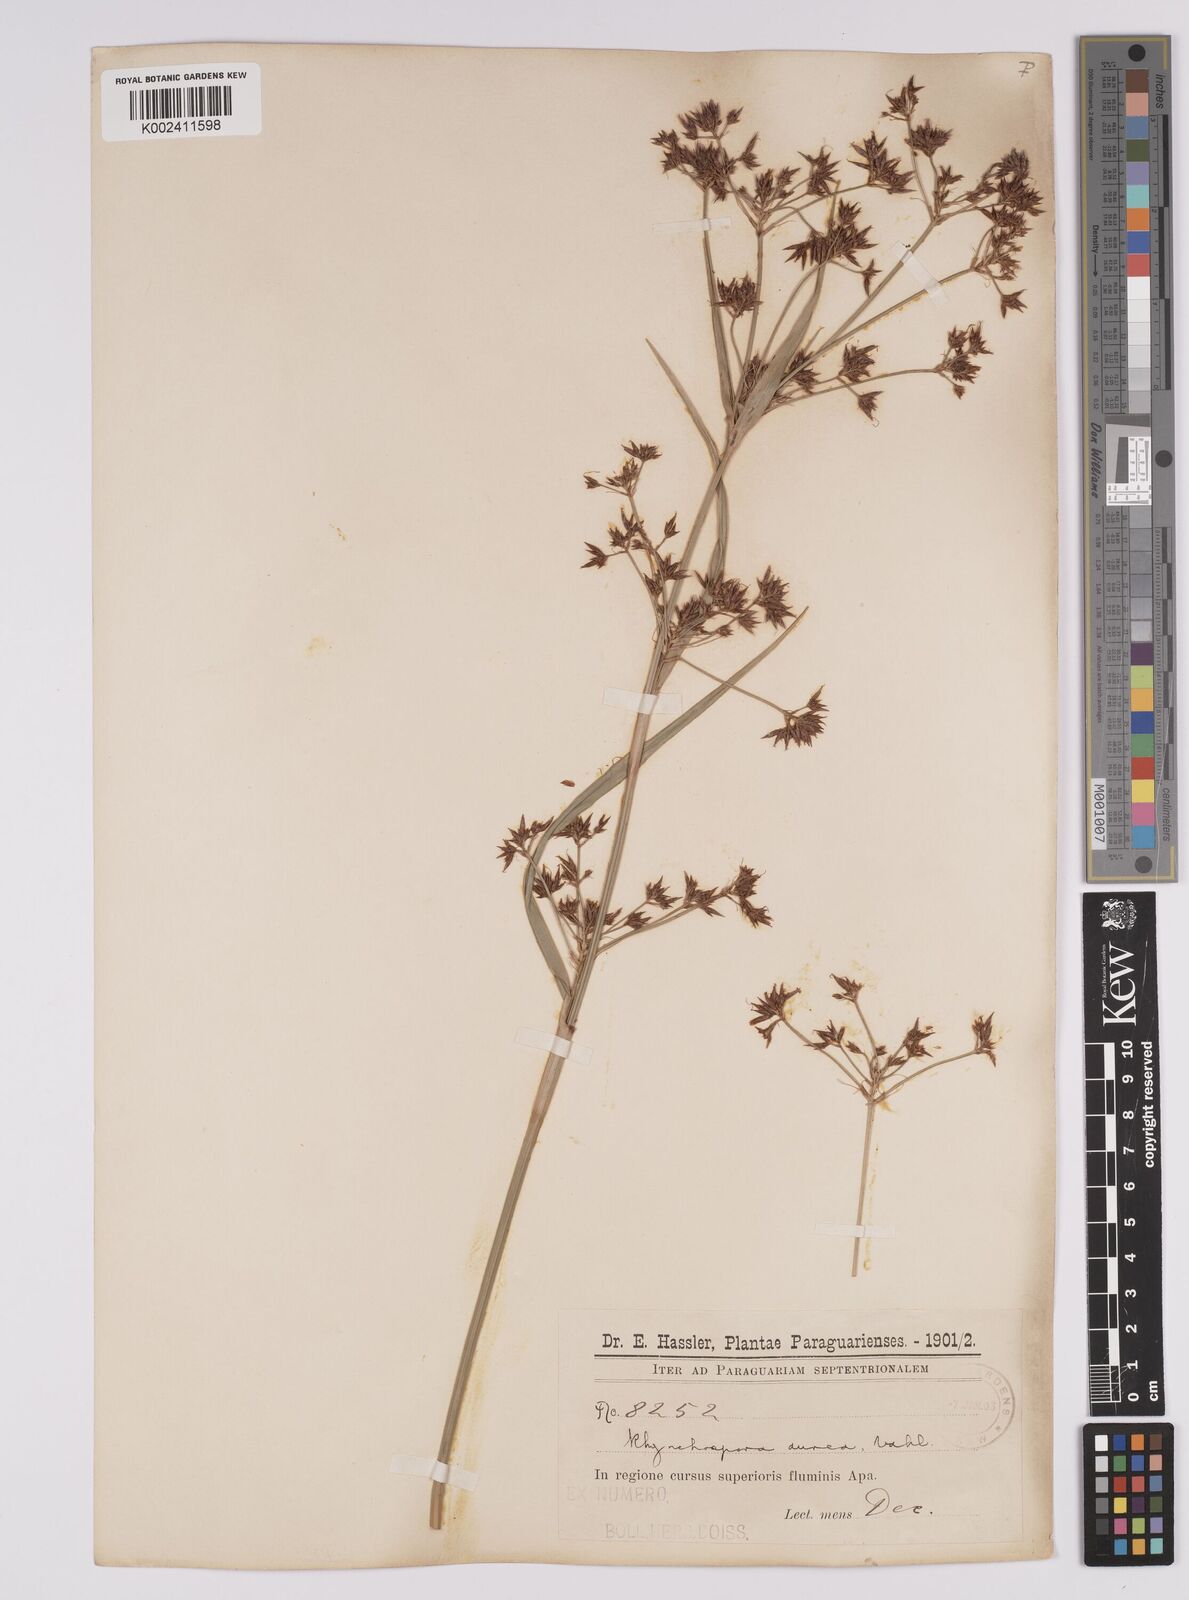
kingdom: Plantae
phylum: Tracheophyta
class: Liliopsida
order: Poales
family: Cyperaceae
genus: Rhynchospora
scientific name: Rhynchospora corymbosa
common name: Golden beak sedge
